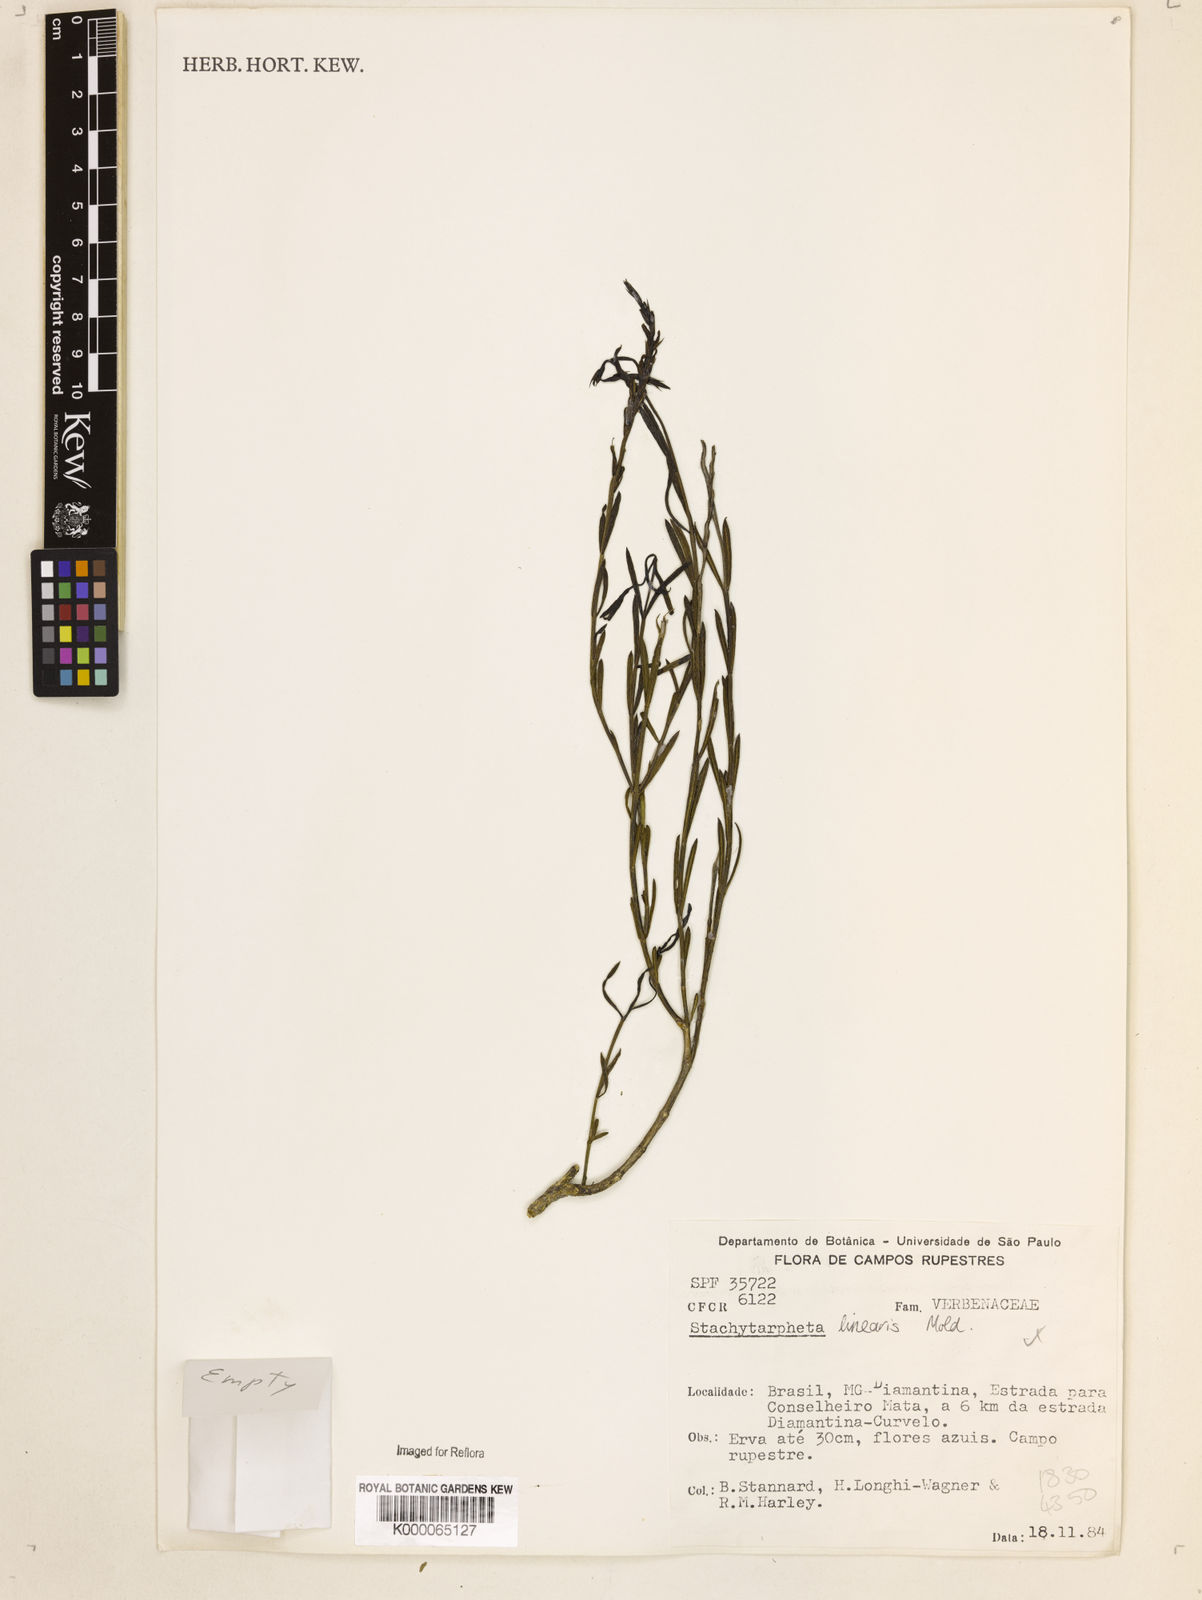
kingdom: Plantae
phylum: Tracheophyta
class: Magnoliopsida
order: Lamiales
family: Verbenaceae
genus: Stachytarpheta
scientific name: Stachytarpheta linearis
